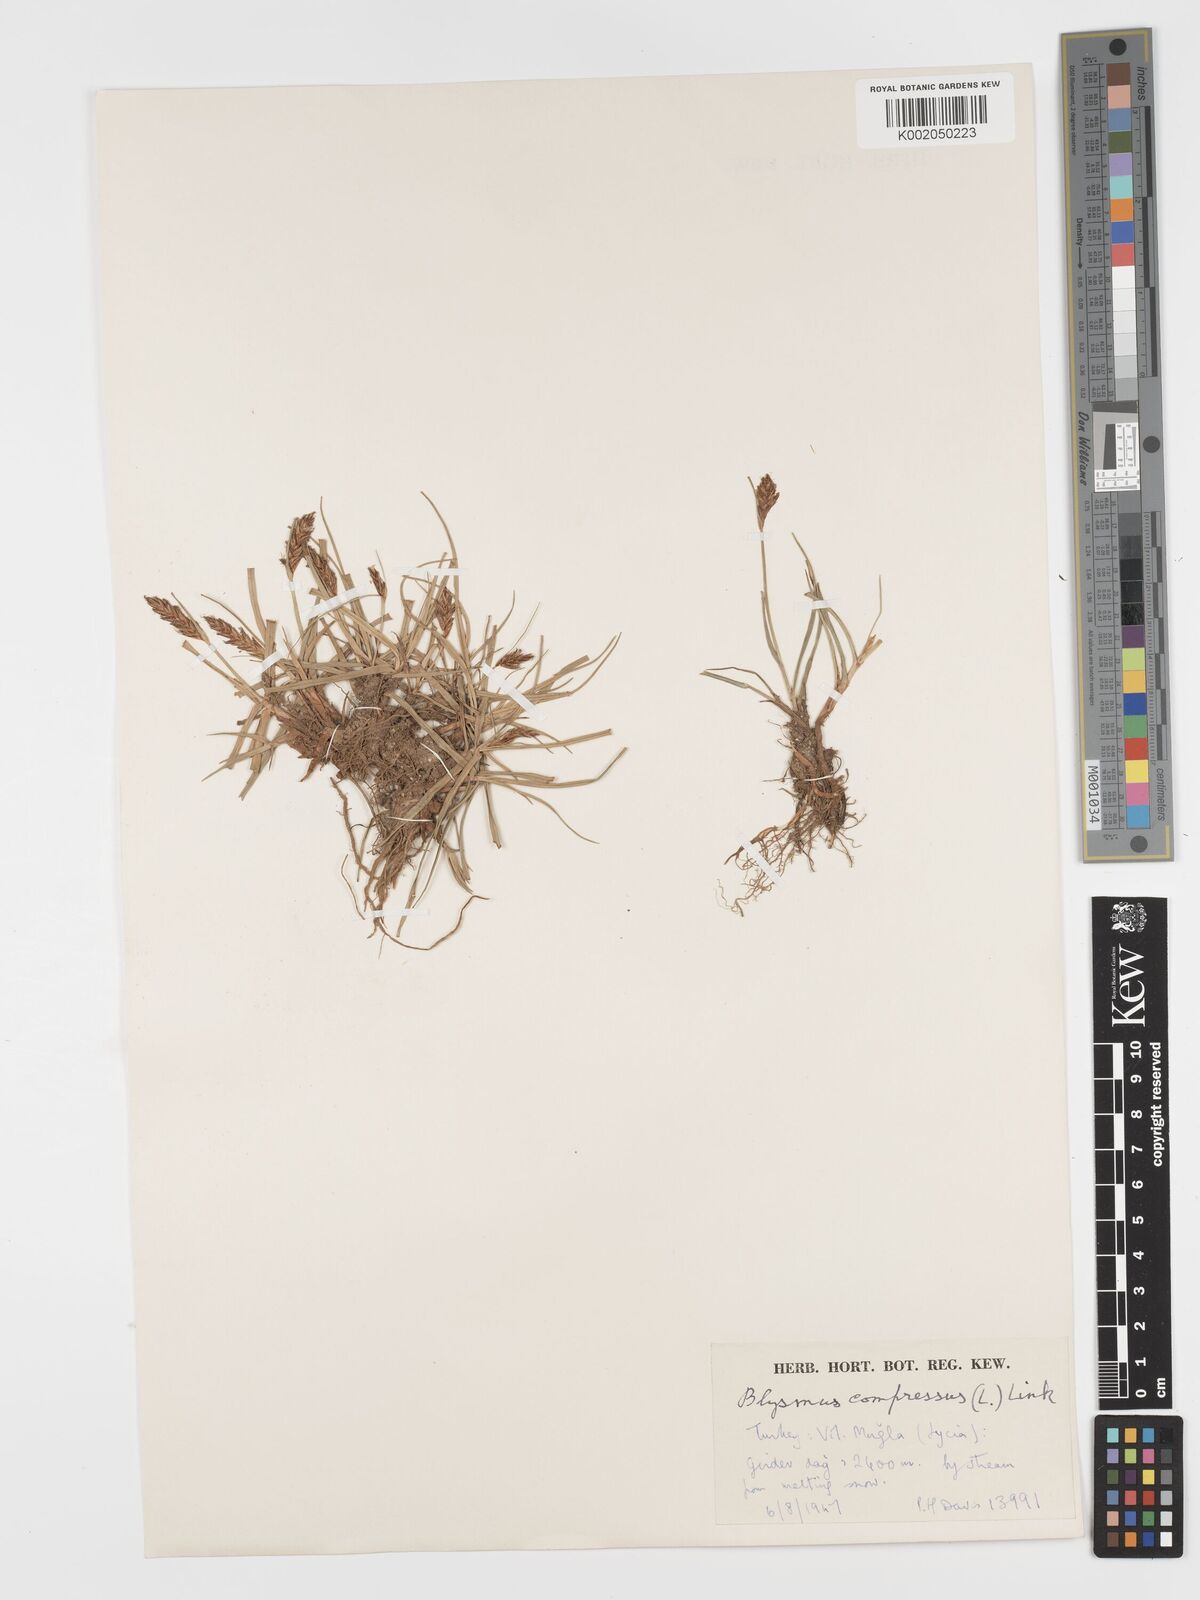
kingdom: Plantae
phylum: Tracheophyta
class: Liliopsida
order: Poales
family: Cyperaceae
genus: Blysmus
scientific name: Blysmus compressus
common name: Flat-sedge
